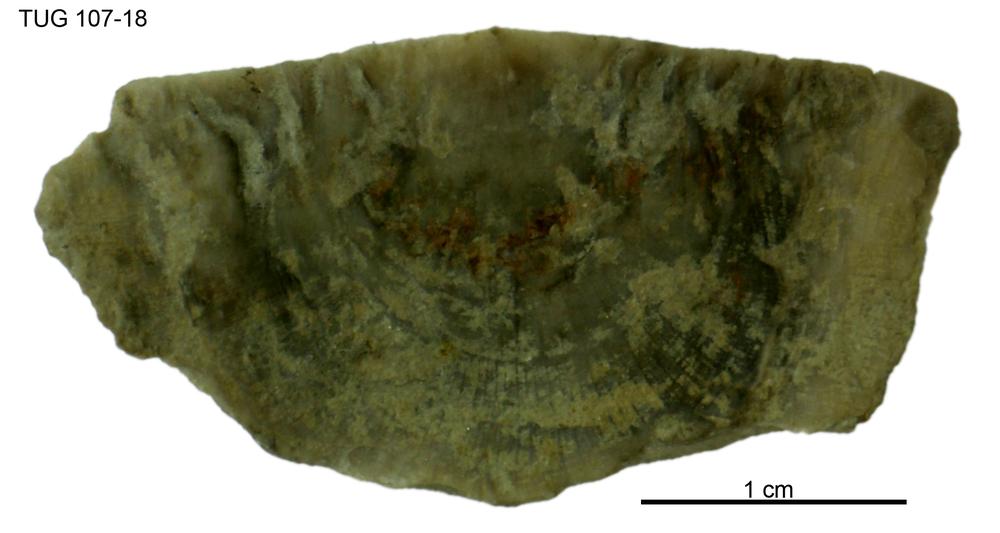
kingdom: Animalia
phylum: Brachiopoda
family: Strophomenidae
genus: Strophomena
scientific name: Strophomena
